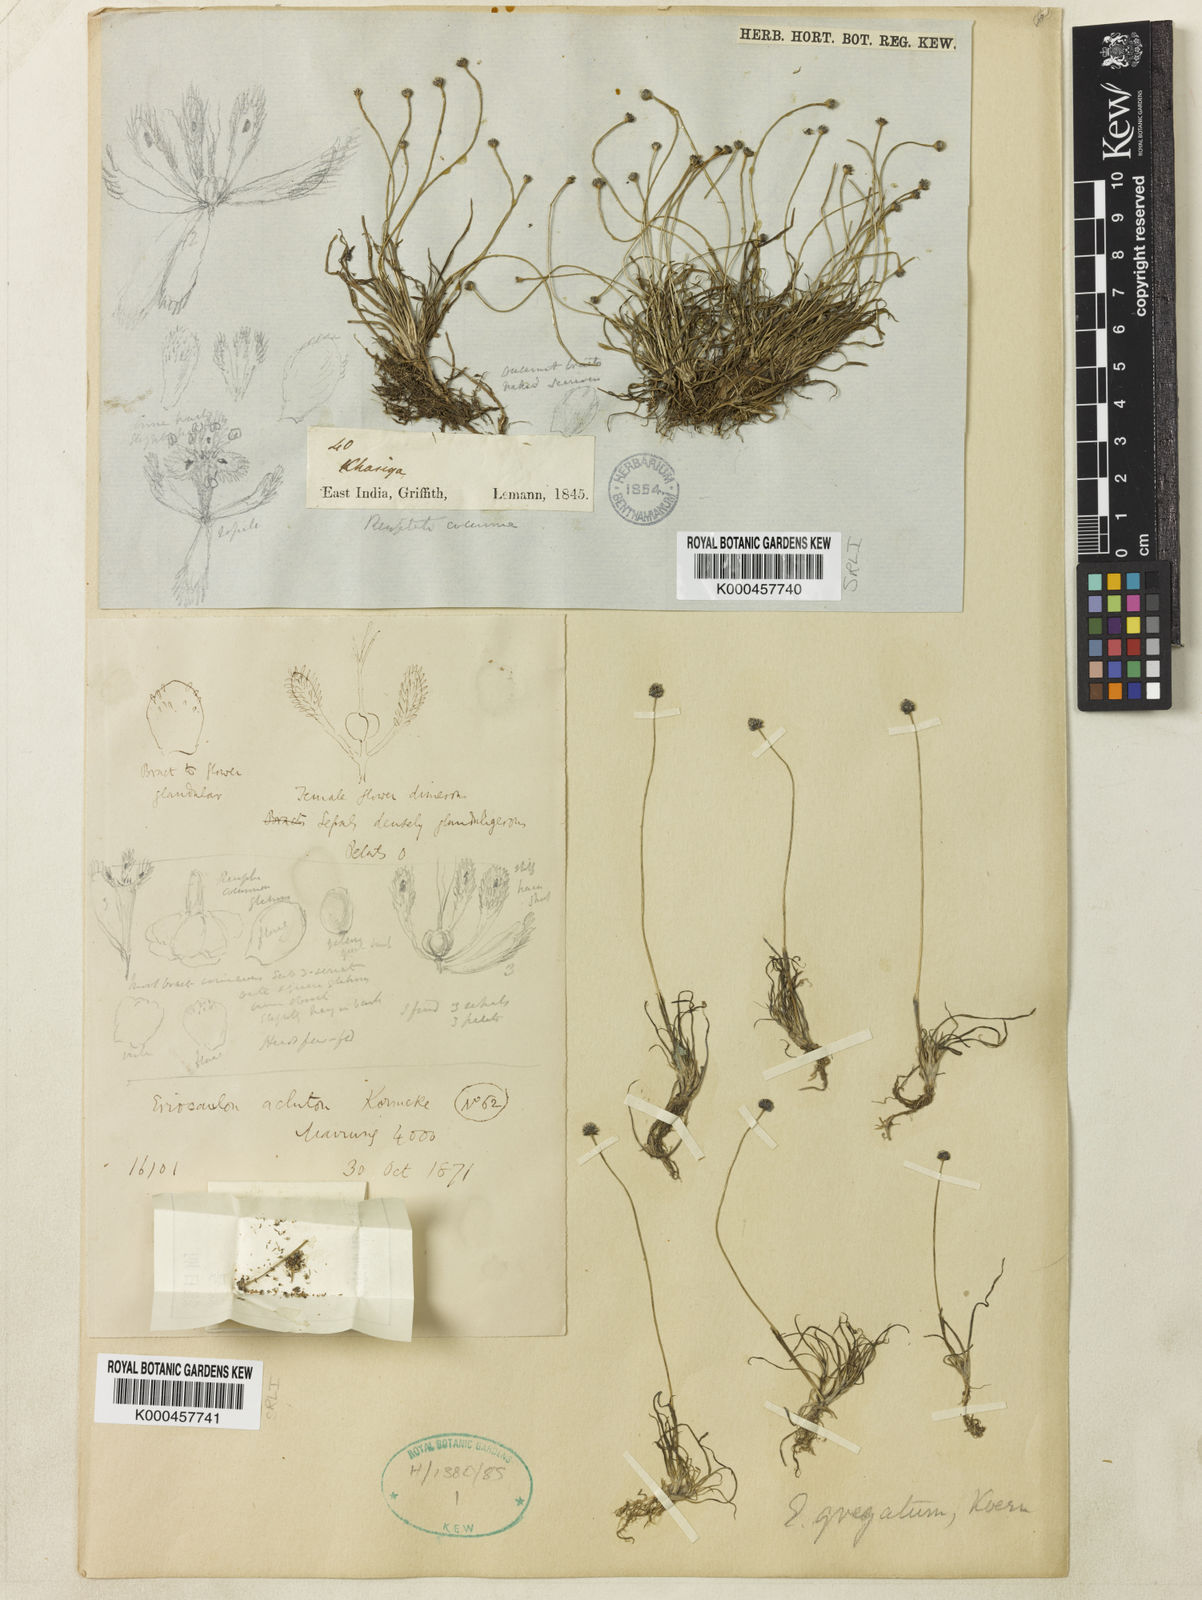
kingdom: Plantae
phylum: Tracheophyta
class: Liliopsida
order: Poales
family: Eriocaulaceae
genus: Eriocaulon
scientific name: Eriocaulon
